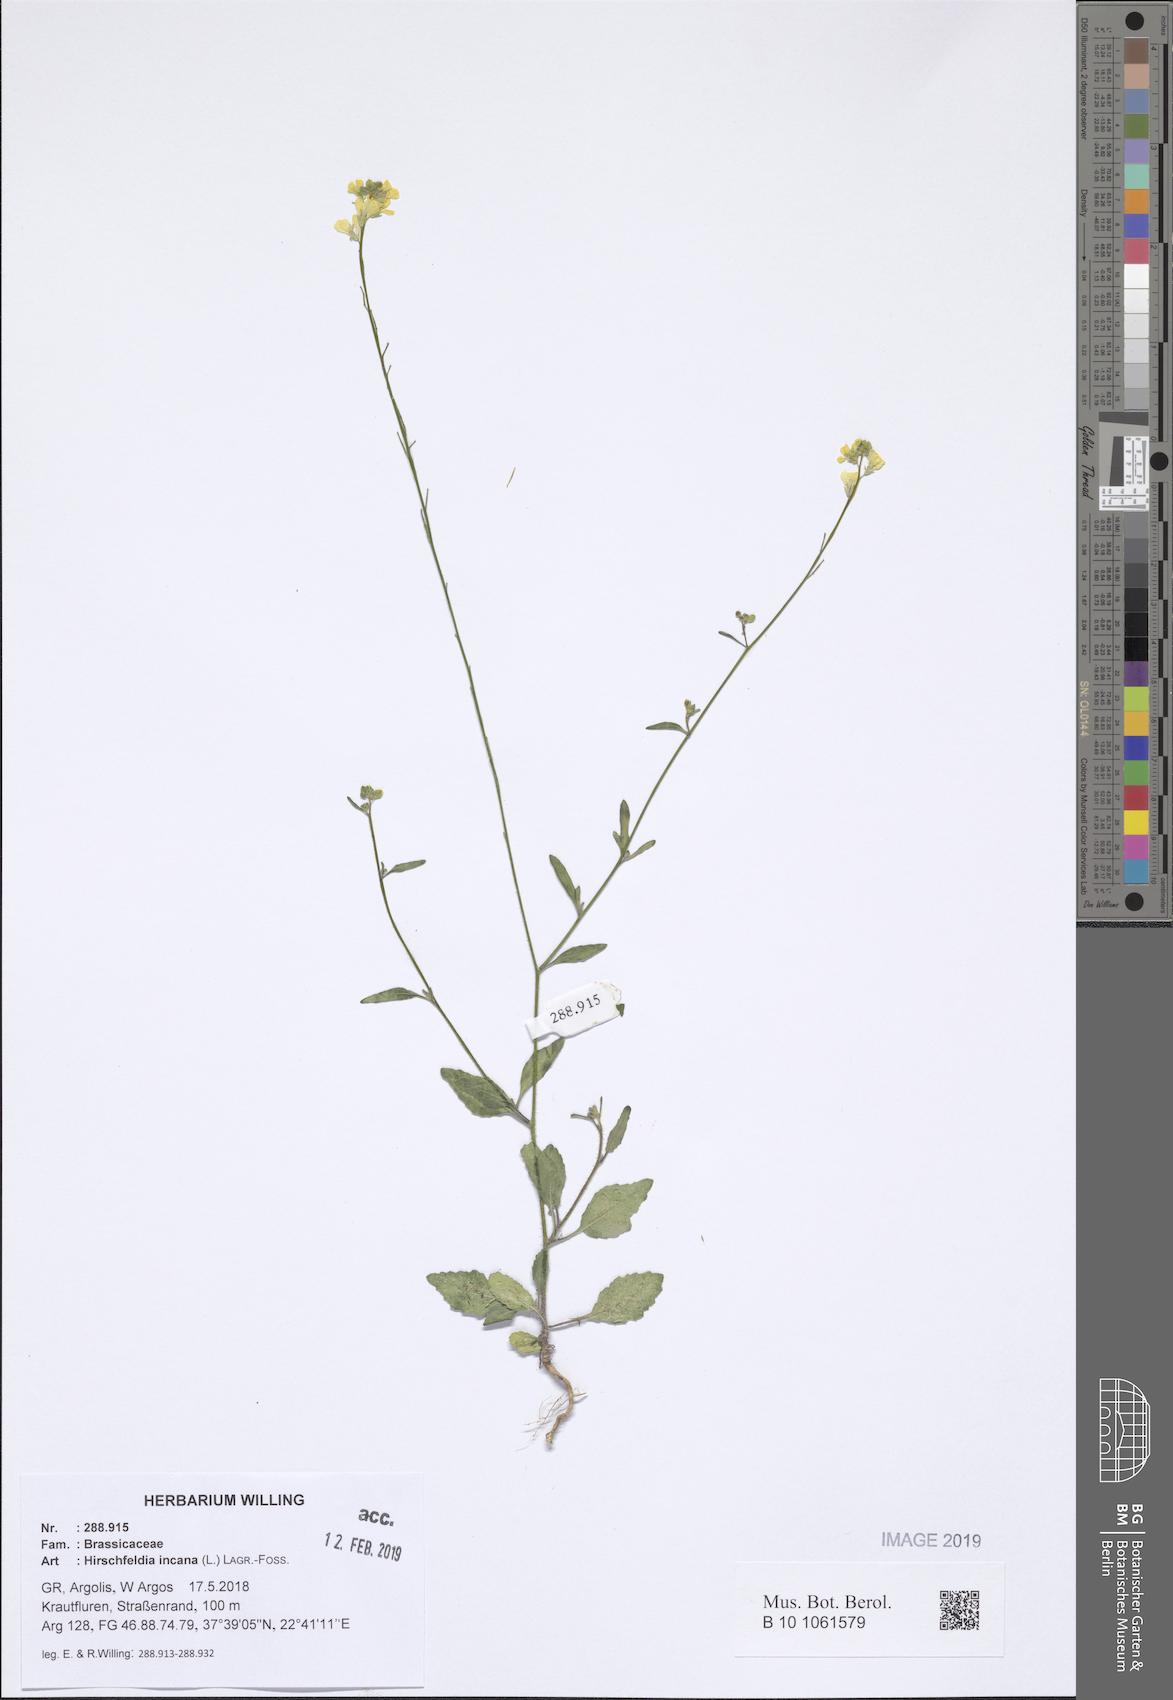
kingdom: Plantae
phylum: Tracheophyta
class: Magnoliopsida
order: Brassicales
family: Brassicaceae
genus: Hirschfeldia
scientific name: Hirschfeldia incana
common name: Hoary mustard
